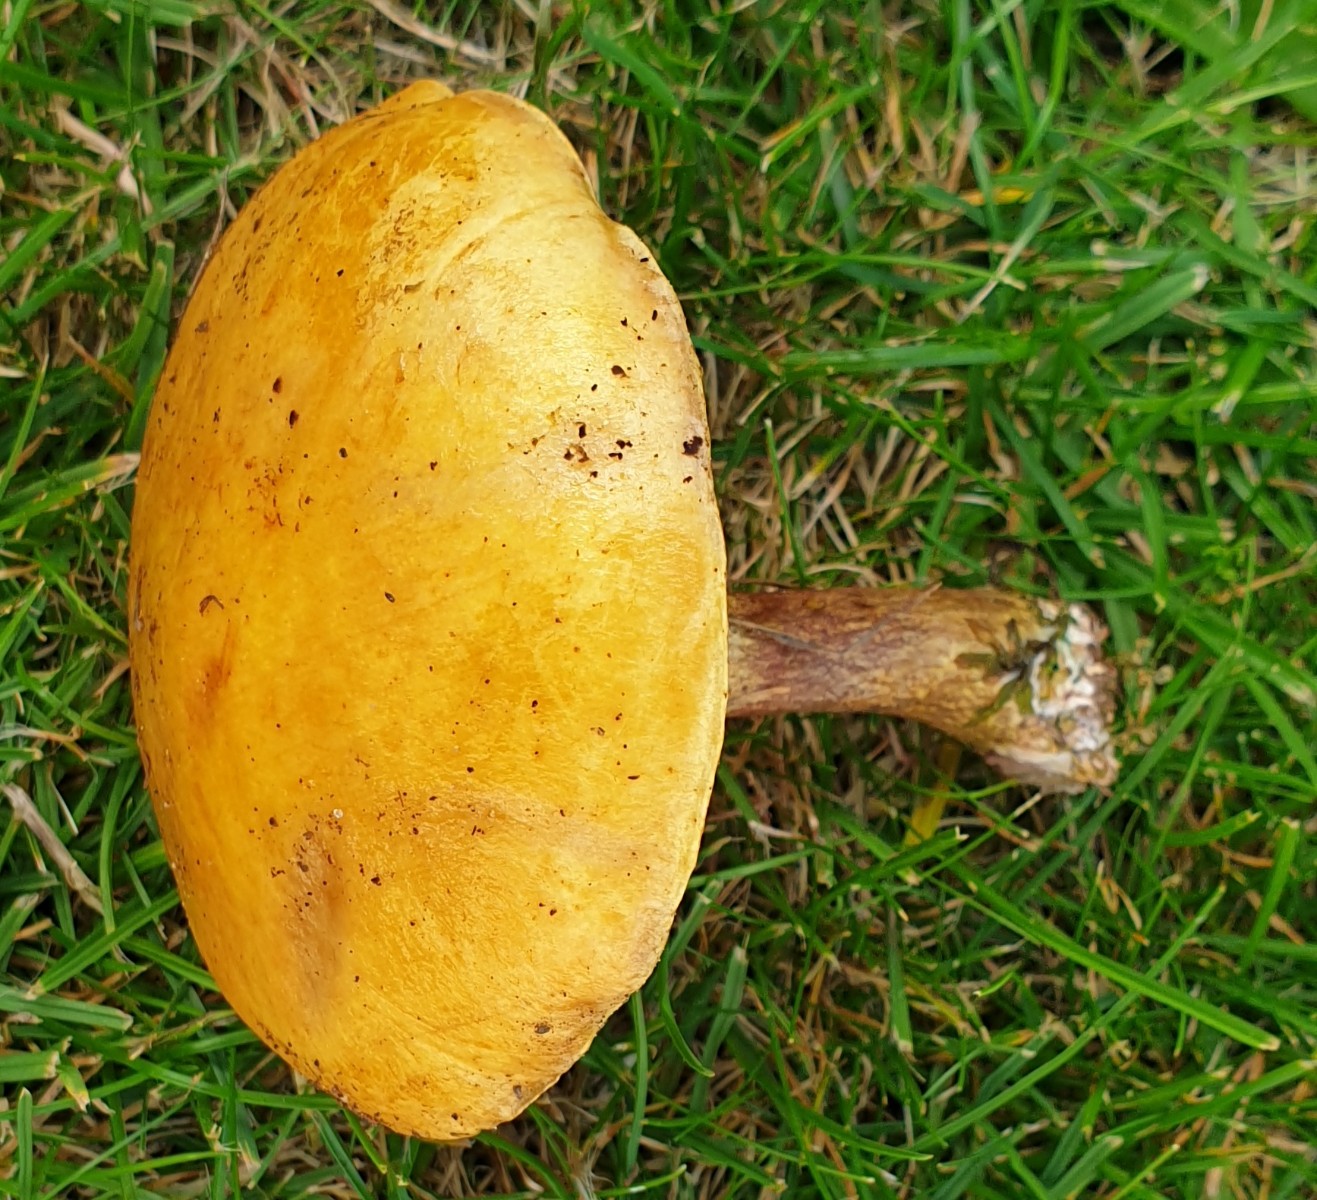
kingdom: Fungi
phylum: Basidiomycota
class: Agaricomycetes
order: Boletales
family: Suillaceae
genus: Suillus
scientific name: Suillus grevillei
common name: lærke-slimrørhat
